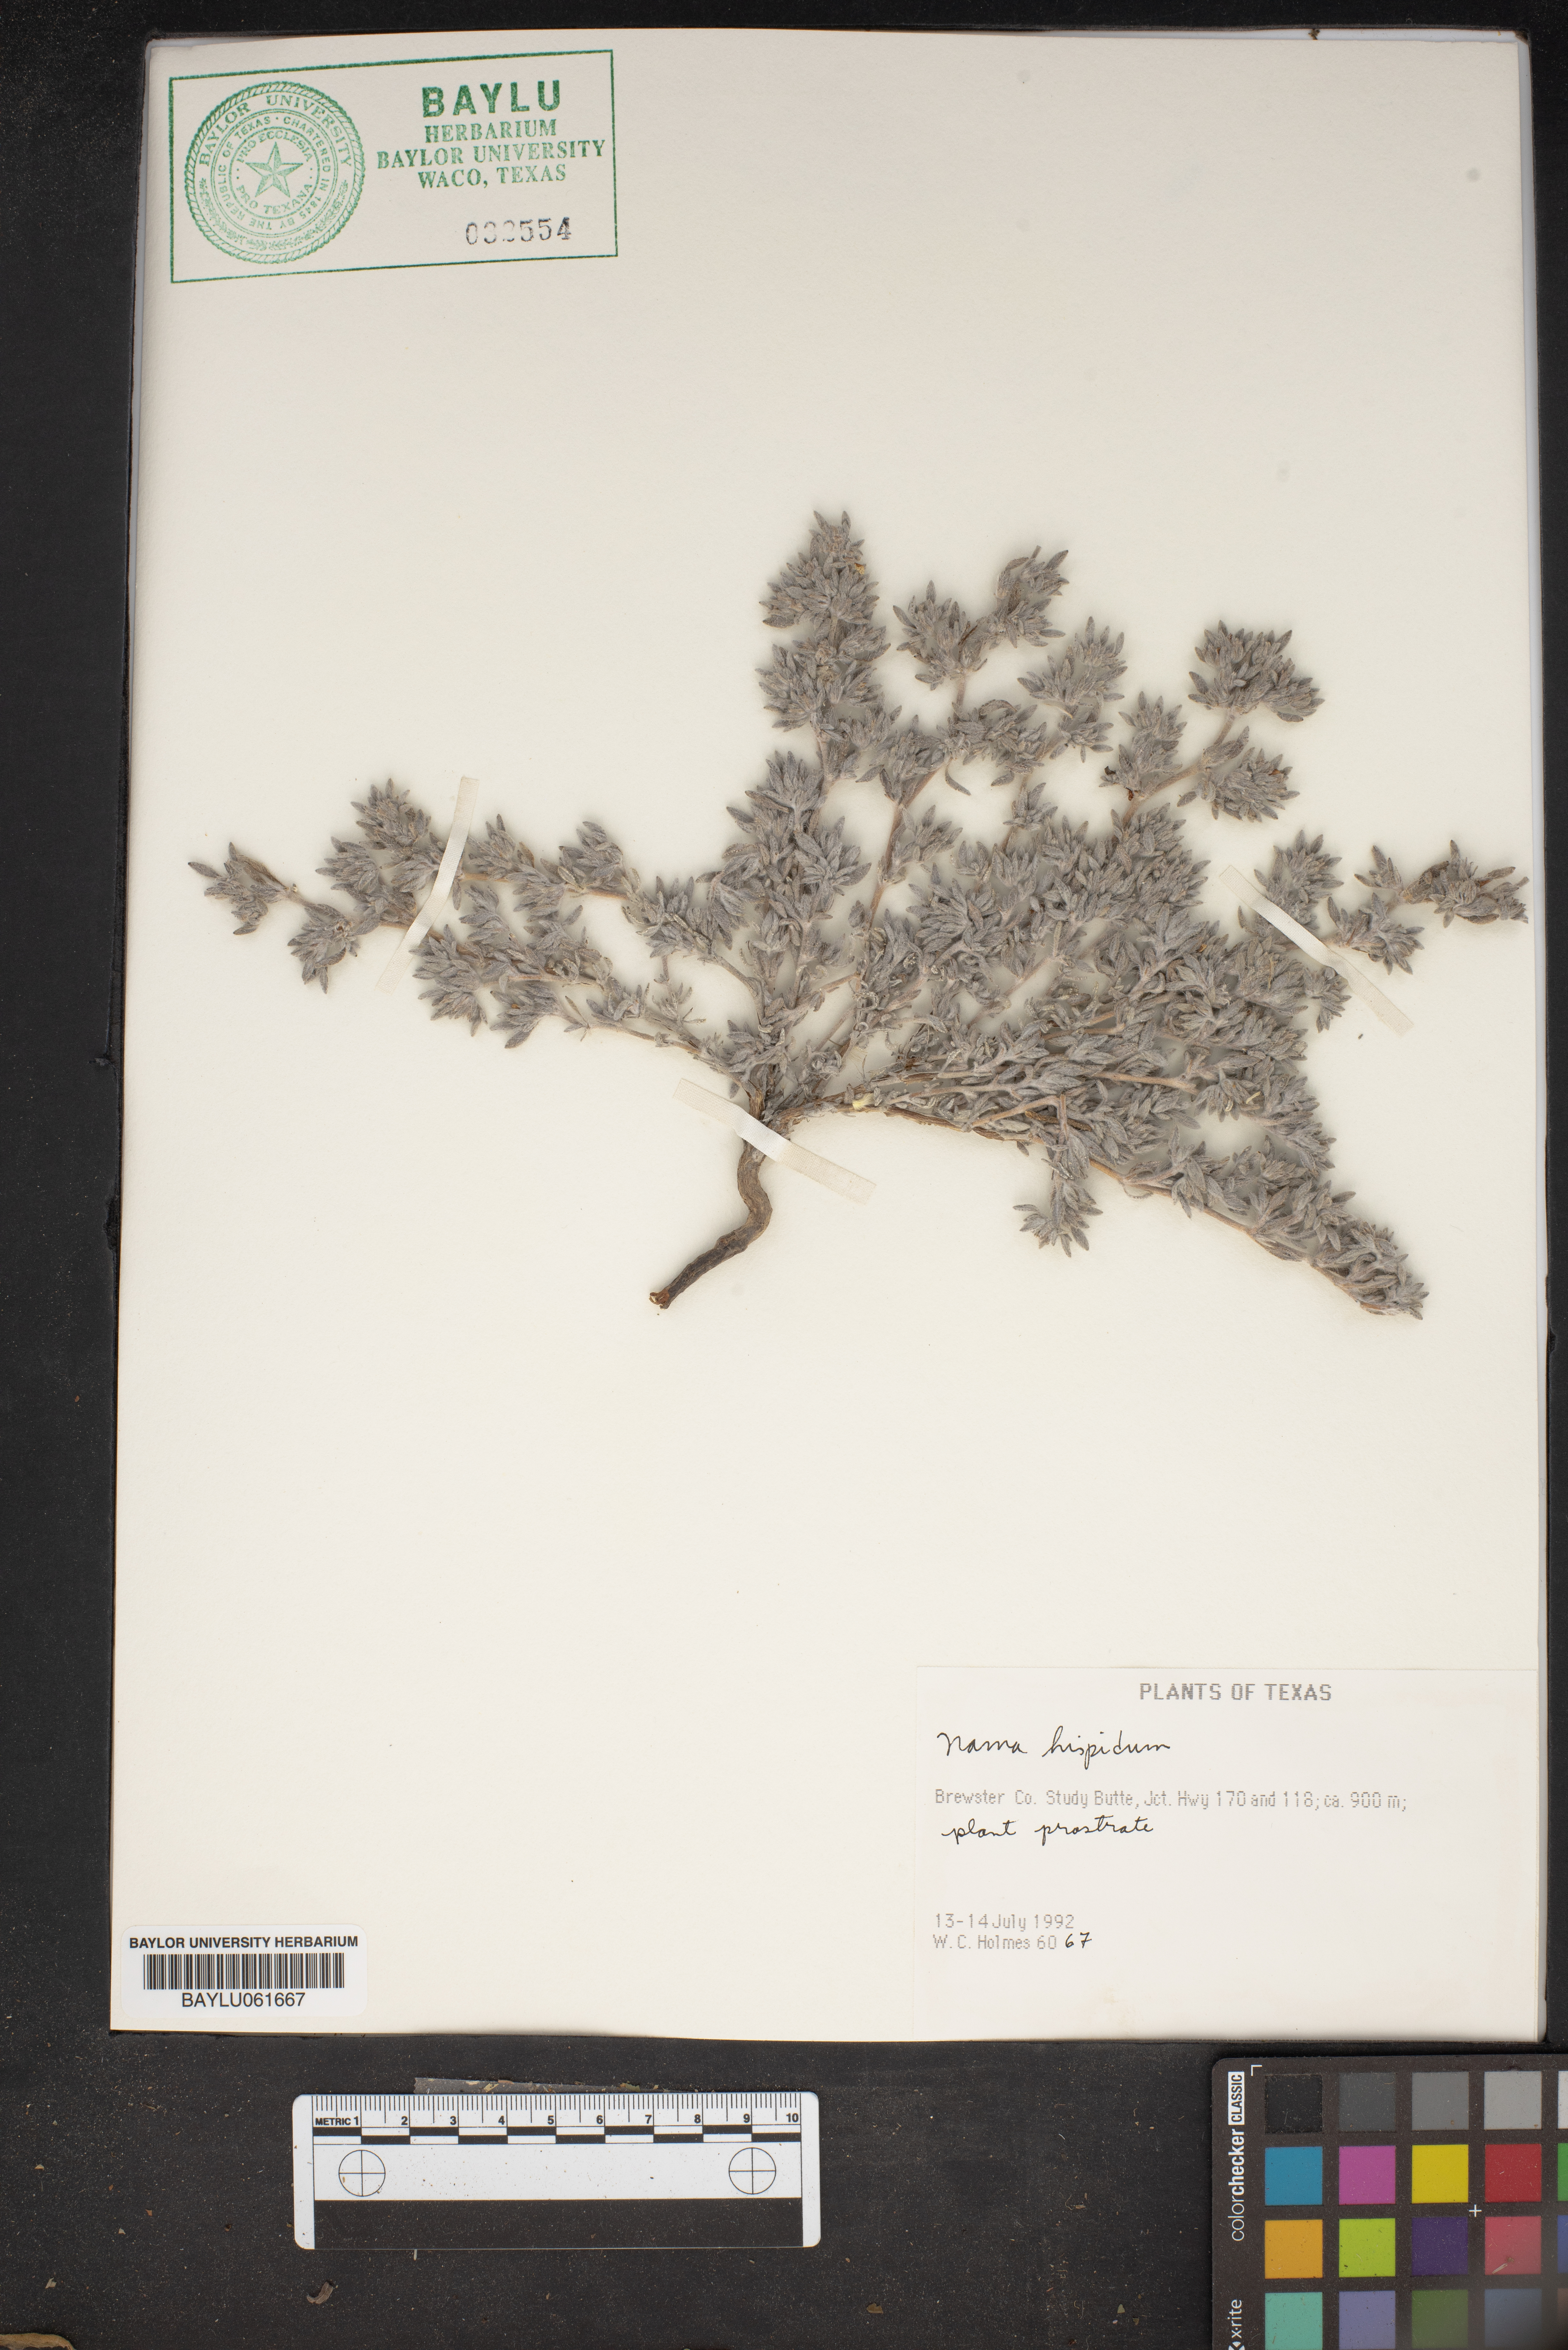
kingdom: Plantae
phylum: Tracheophyta
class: Magnoliopsida
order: Boraginales
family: Namaceae
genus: Nama
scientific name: Nama hispida
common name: Bristly nama
